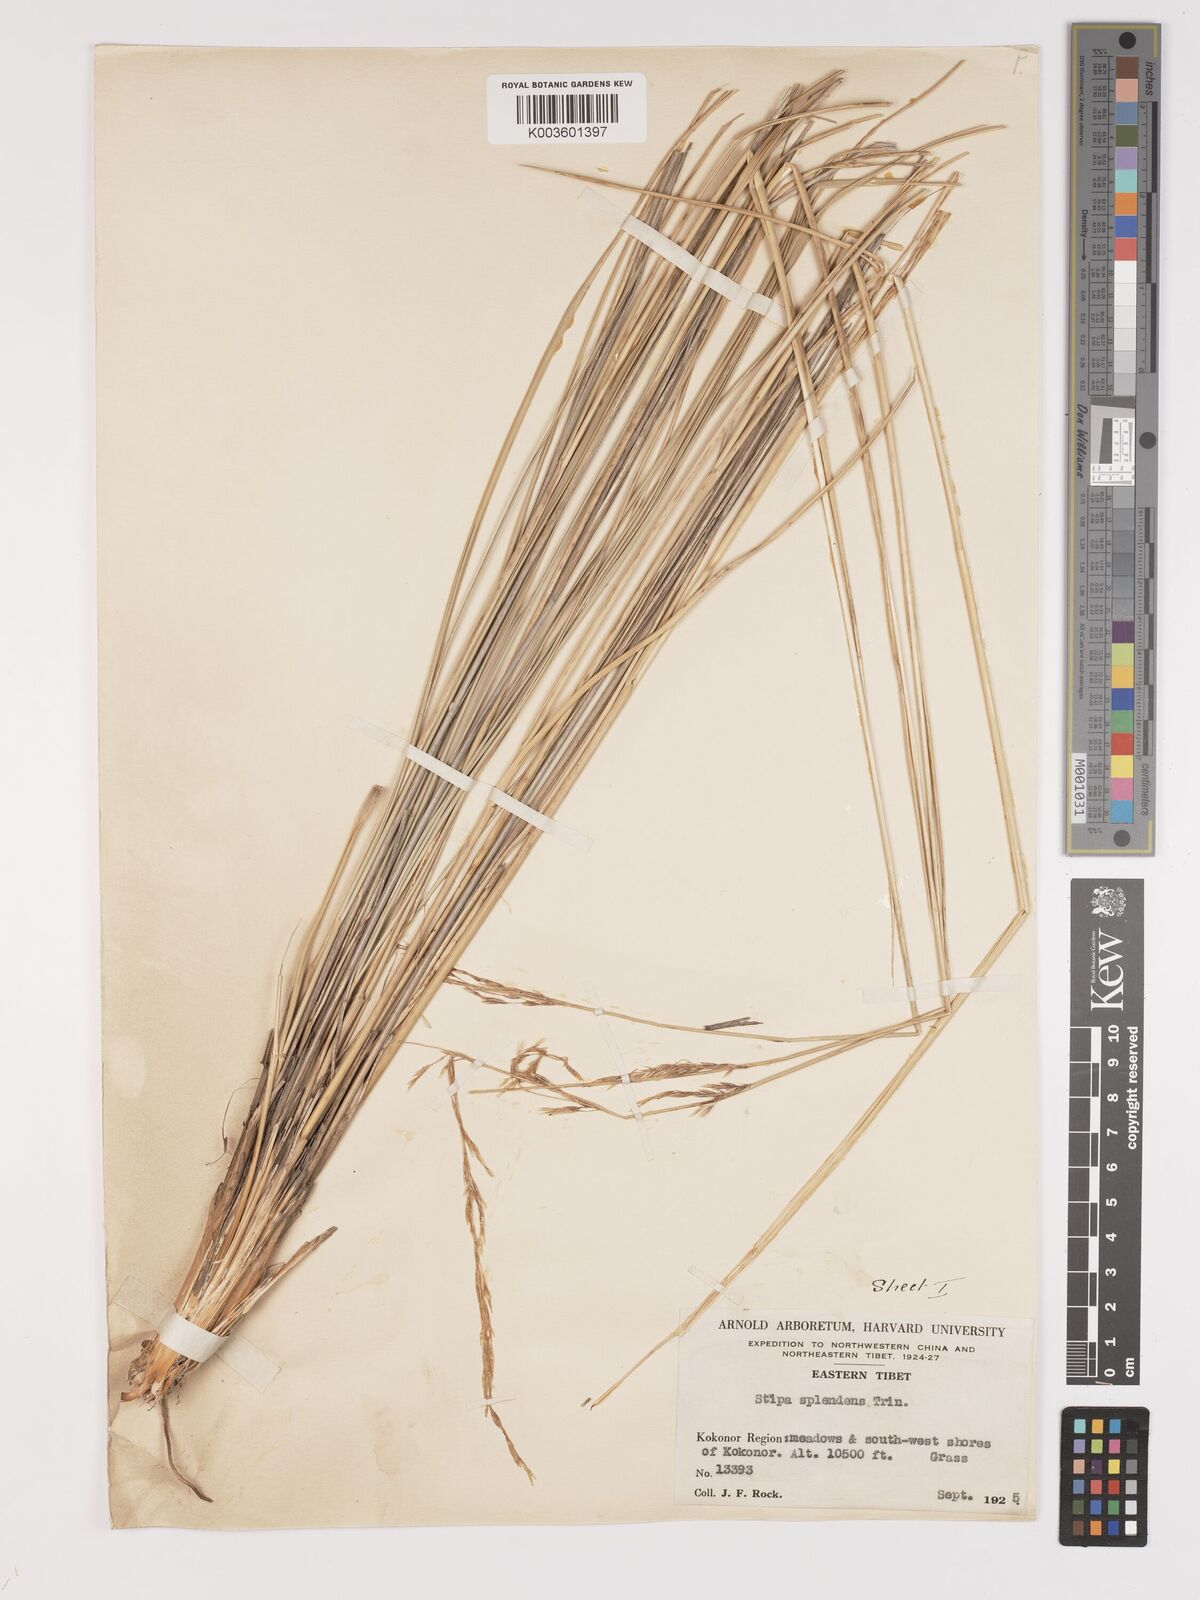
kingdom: Plantae
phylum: Tracheophyta
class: Liliopsida
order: Poales
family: Poaceae
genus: Neotrinia
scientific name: Neotrinia splendens
